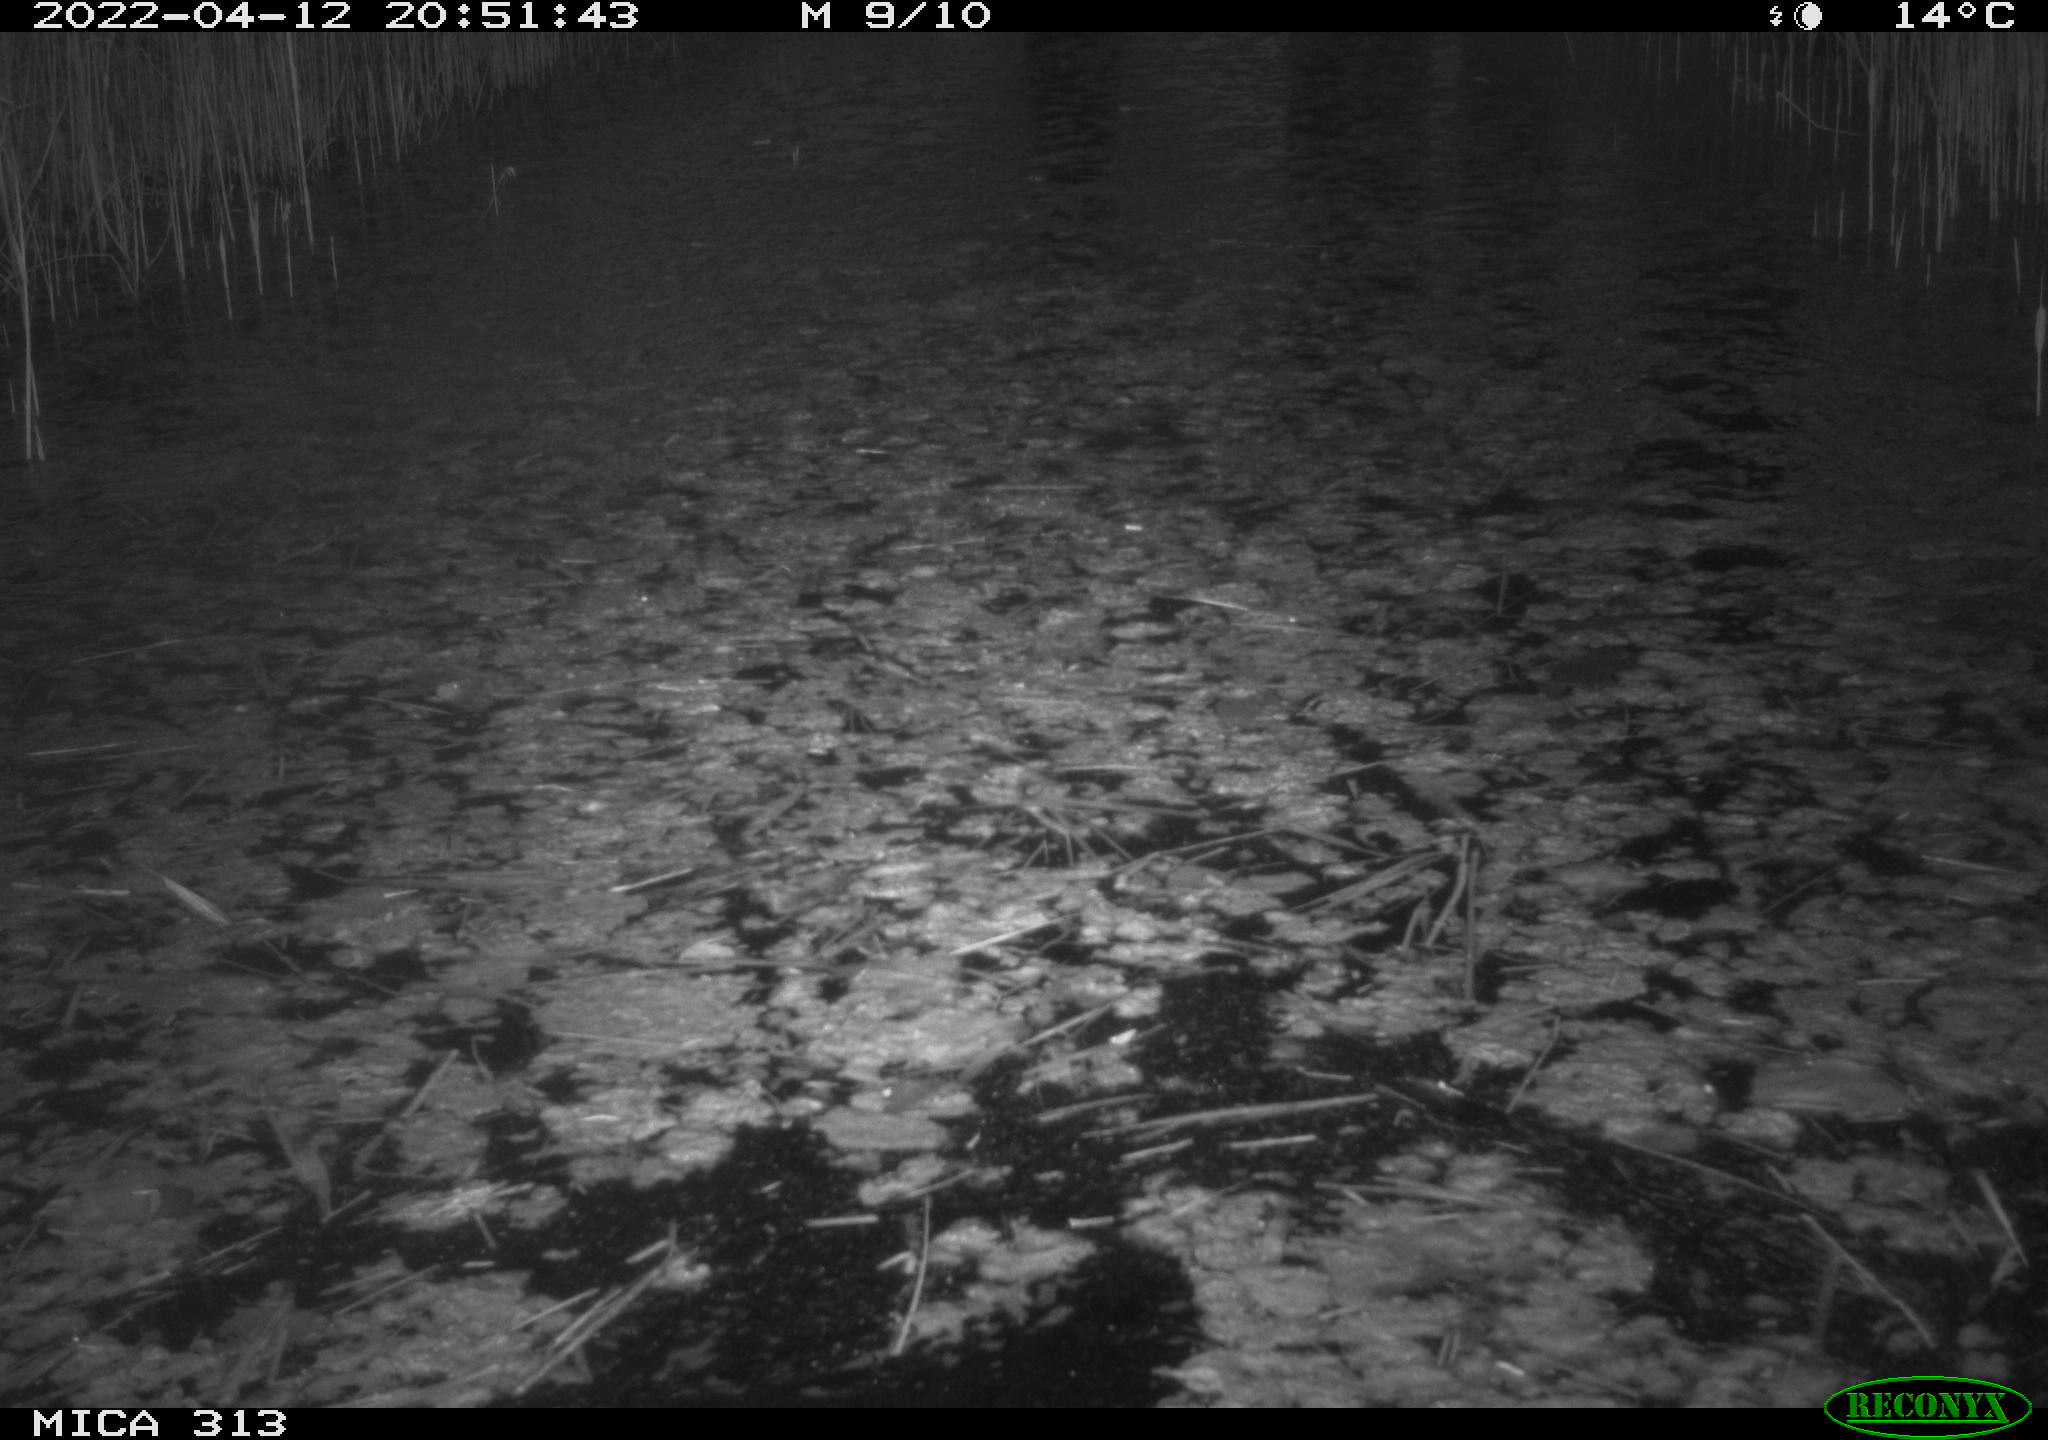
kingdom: Animalia
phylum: Chordata
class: Aves
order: Gruiformes
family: Rallidae
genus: Fulica
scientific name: Fulica atra
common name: Eurasian coot
